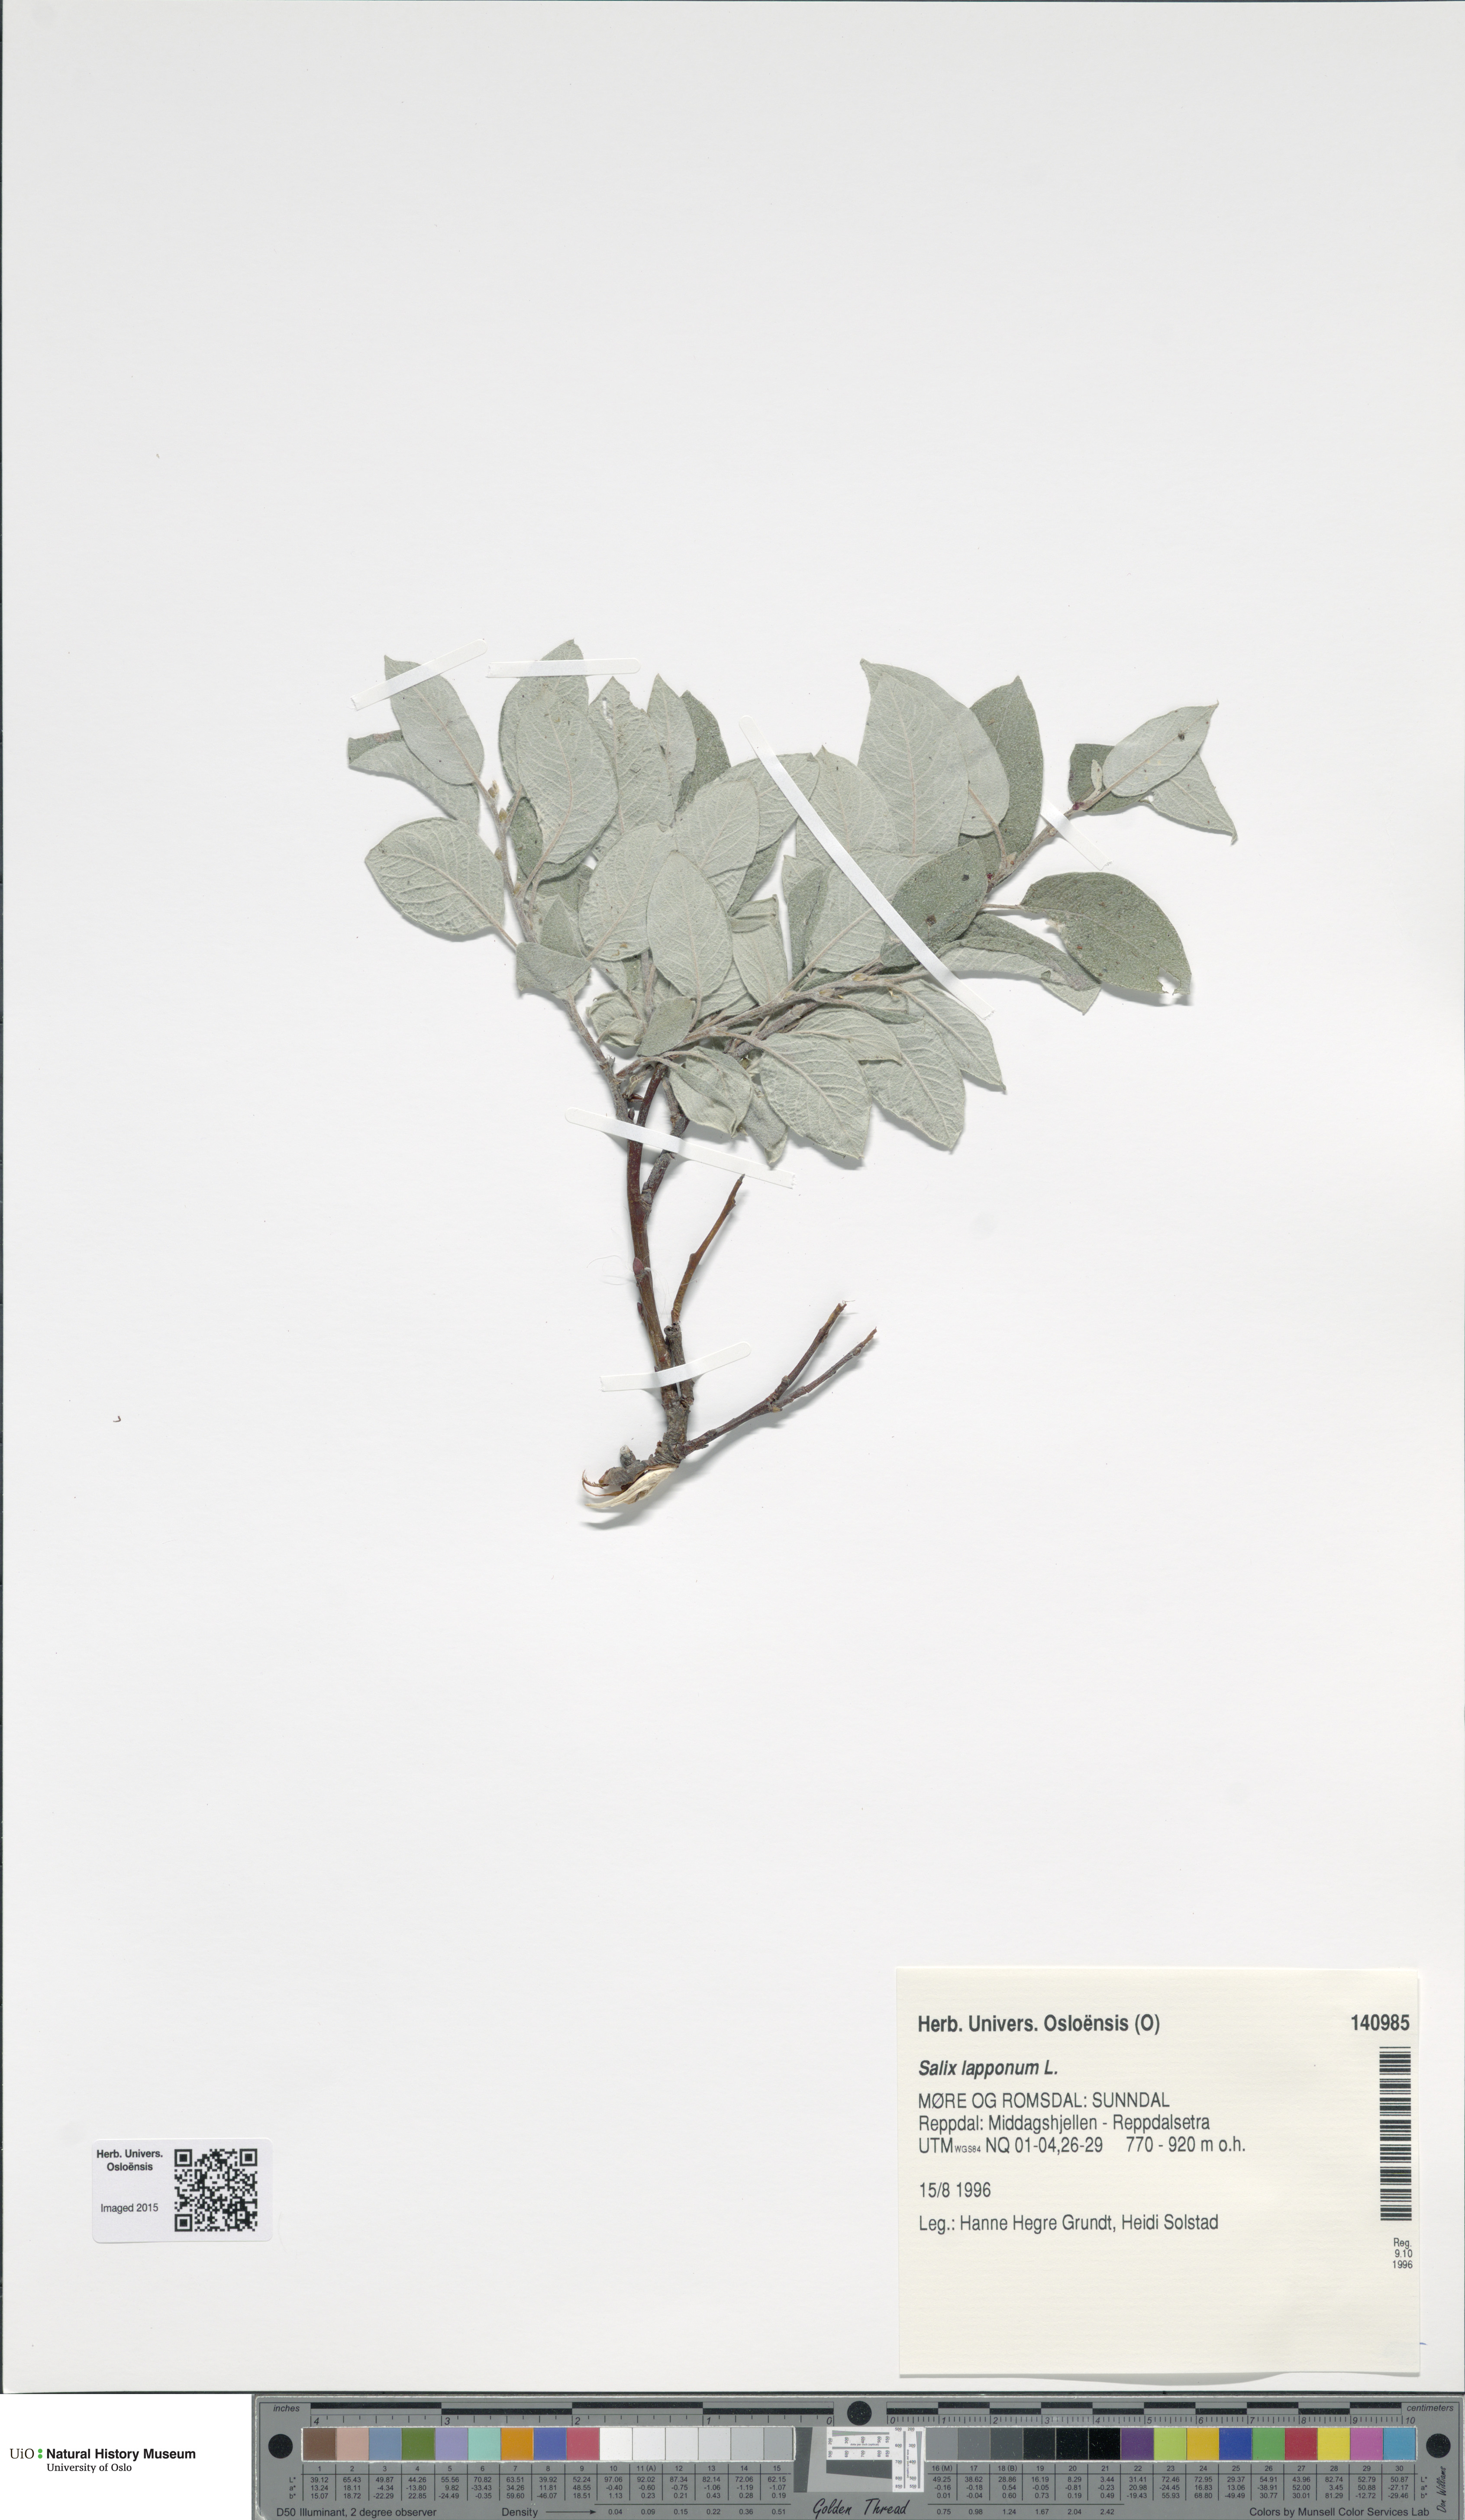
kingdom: Plantae
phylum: Tracheophyta
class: Magnoliopsida
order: Malpighiales
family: Salicaceae
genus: Salix
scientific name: Salix lapponum
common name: Downy willow
